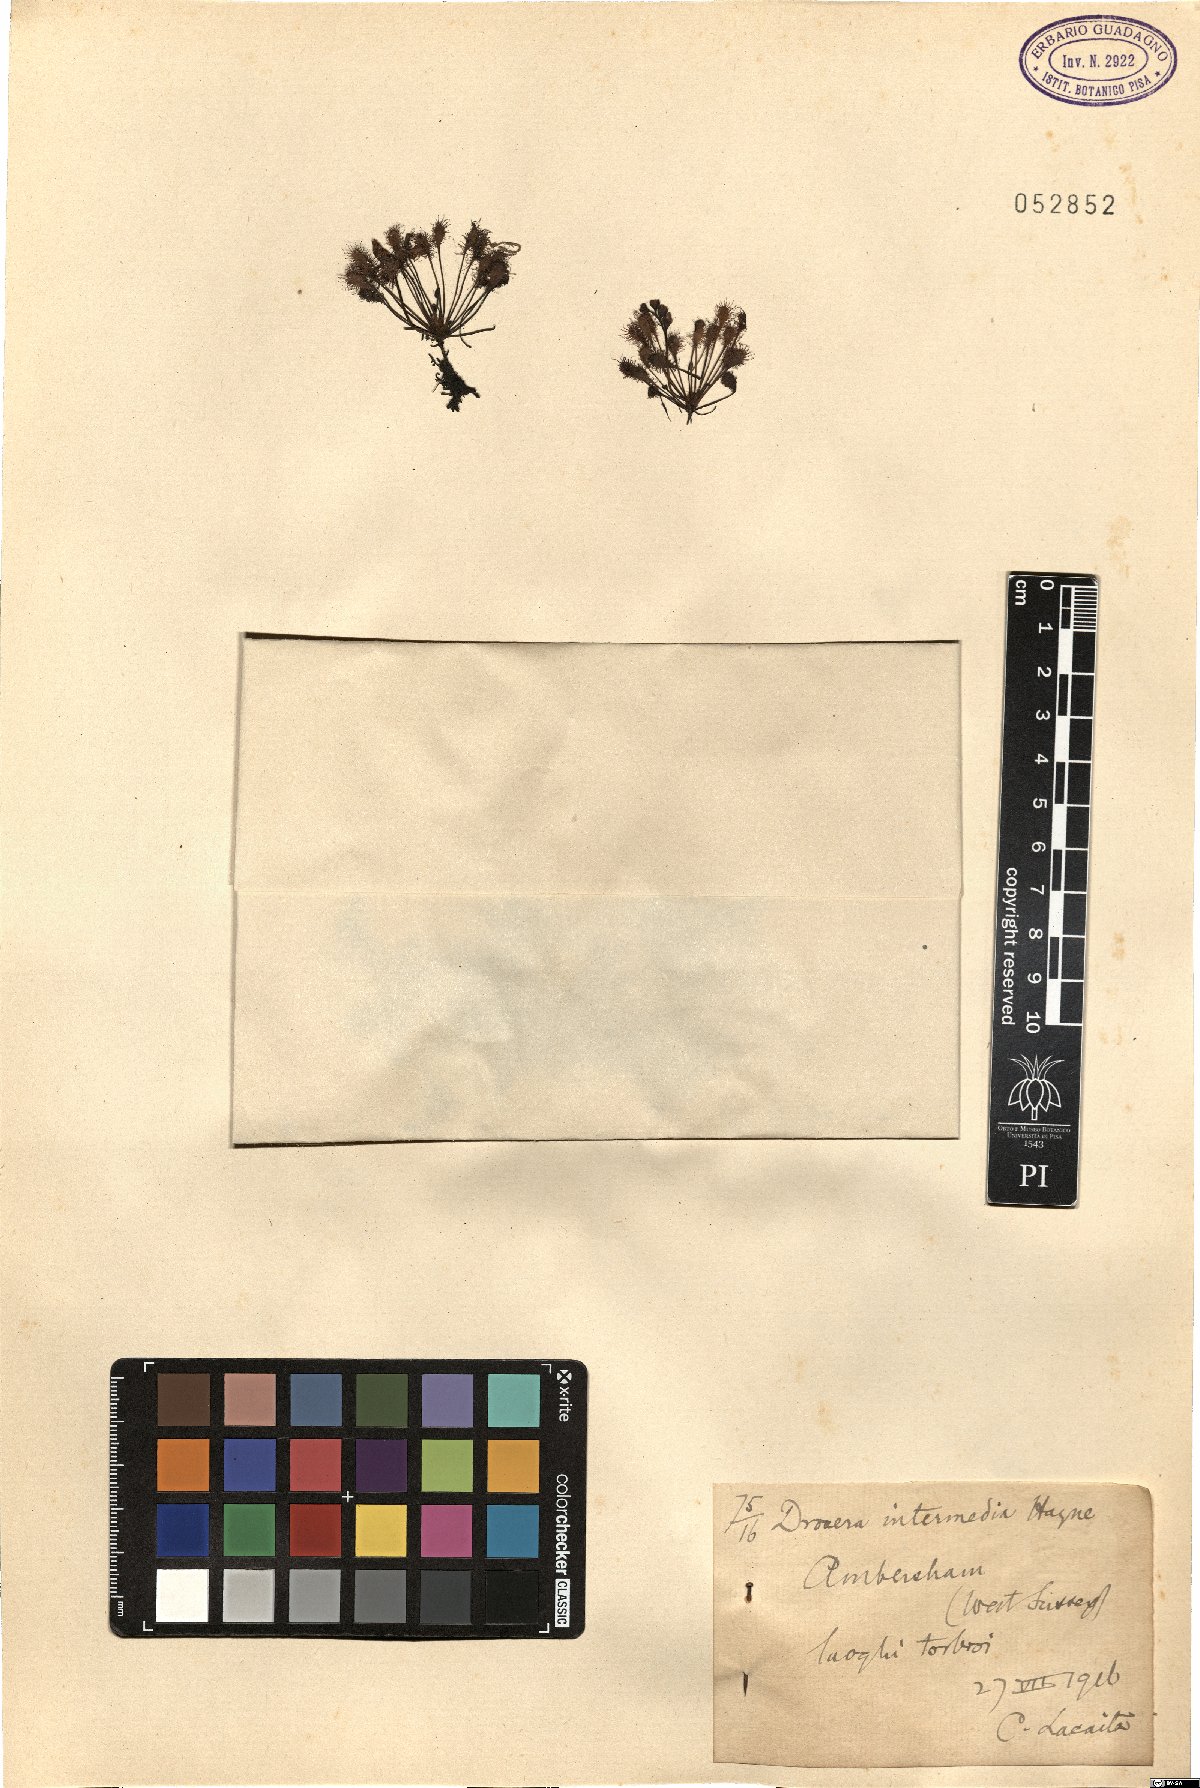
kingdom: Plantae
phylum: Tracheophyta
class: Magnoliopsida
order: Caryophyllales
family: Droseraceae
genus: Drosera
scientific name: Drosera intermedia
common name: Oblong-leaved sundew
